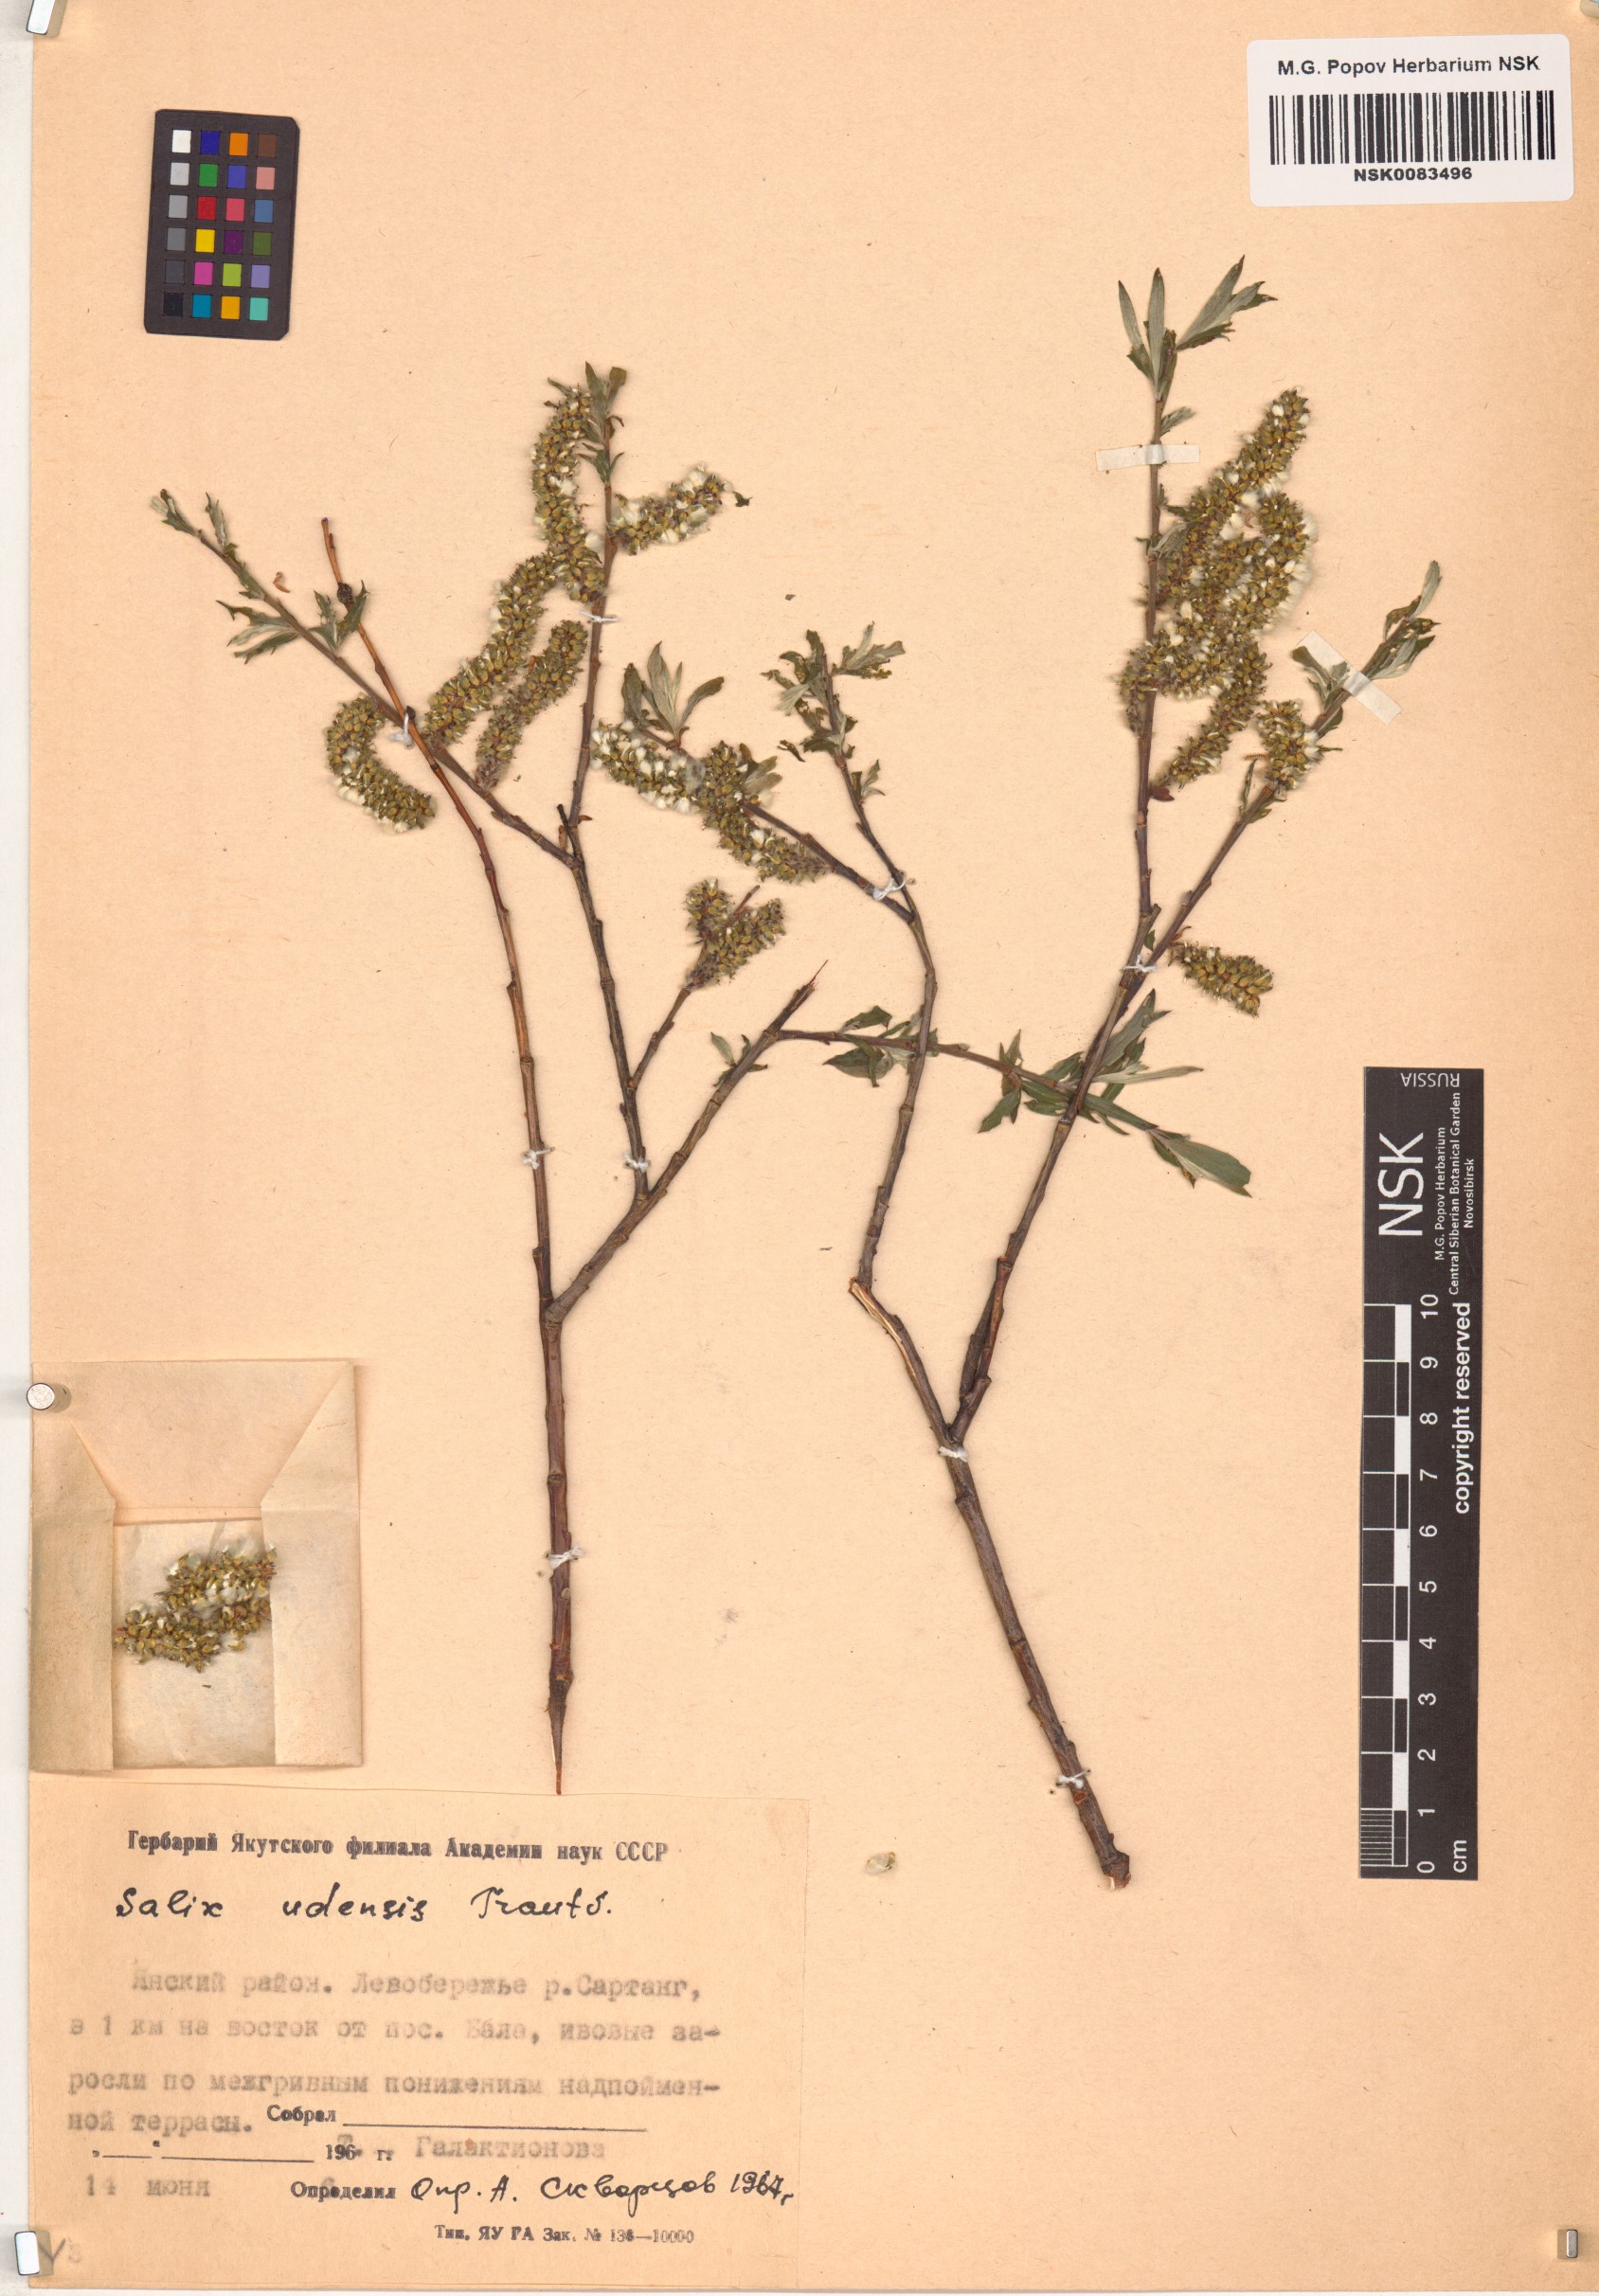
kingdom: Plantae
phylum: Tracheophyta
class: Magnoliopsida
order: Malpighiales
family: Salicaceae
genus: Salix
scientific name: Salix udensis
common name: Sachalin willow
